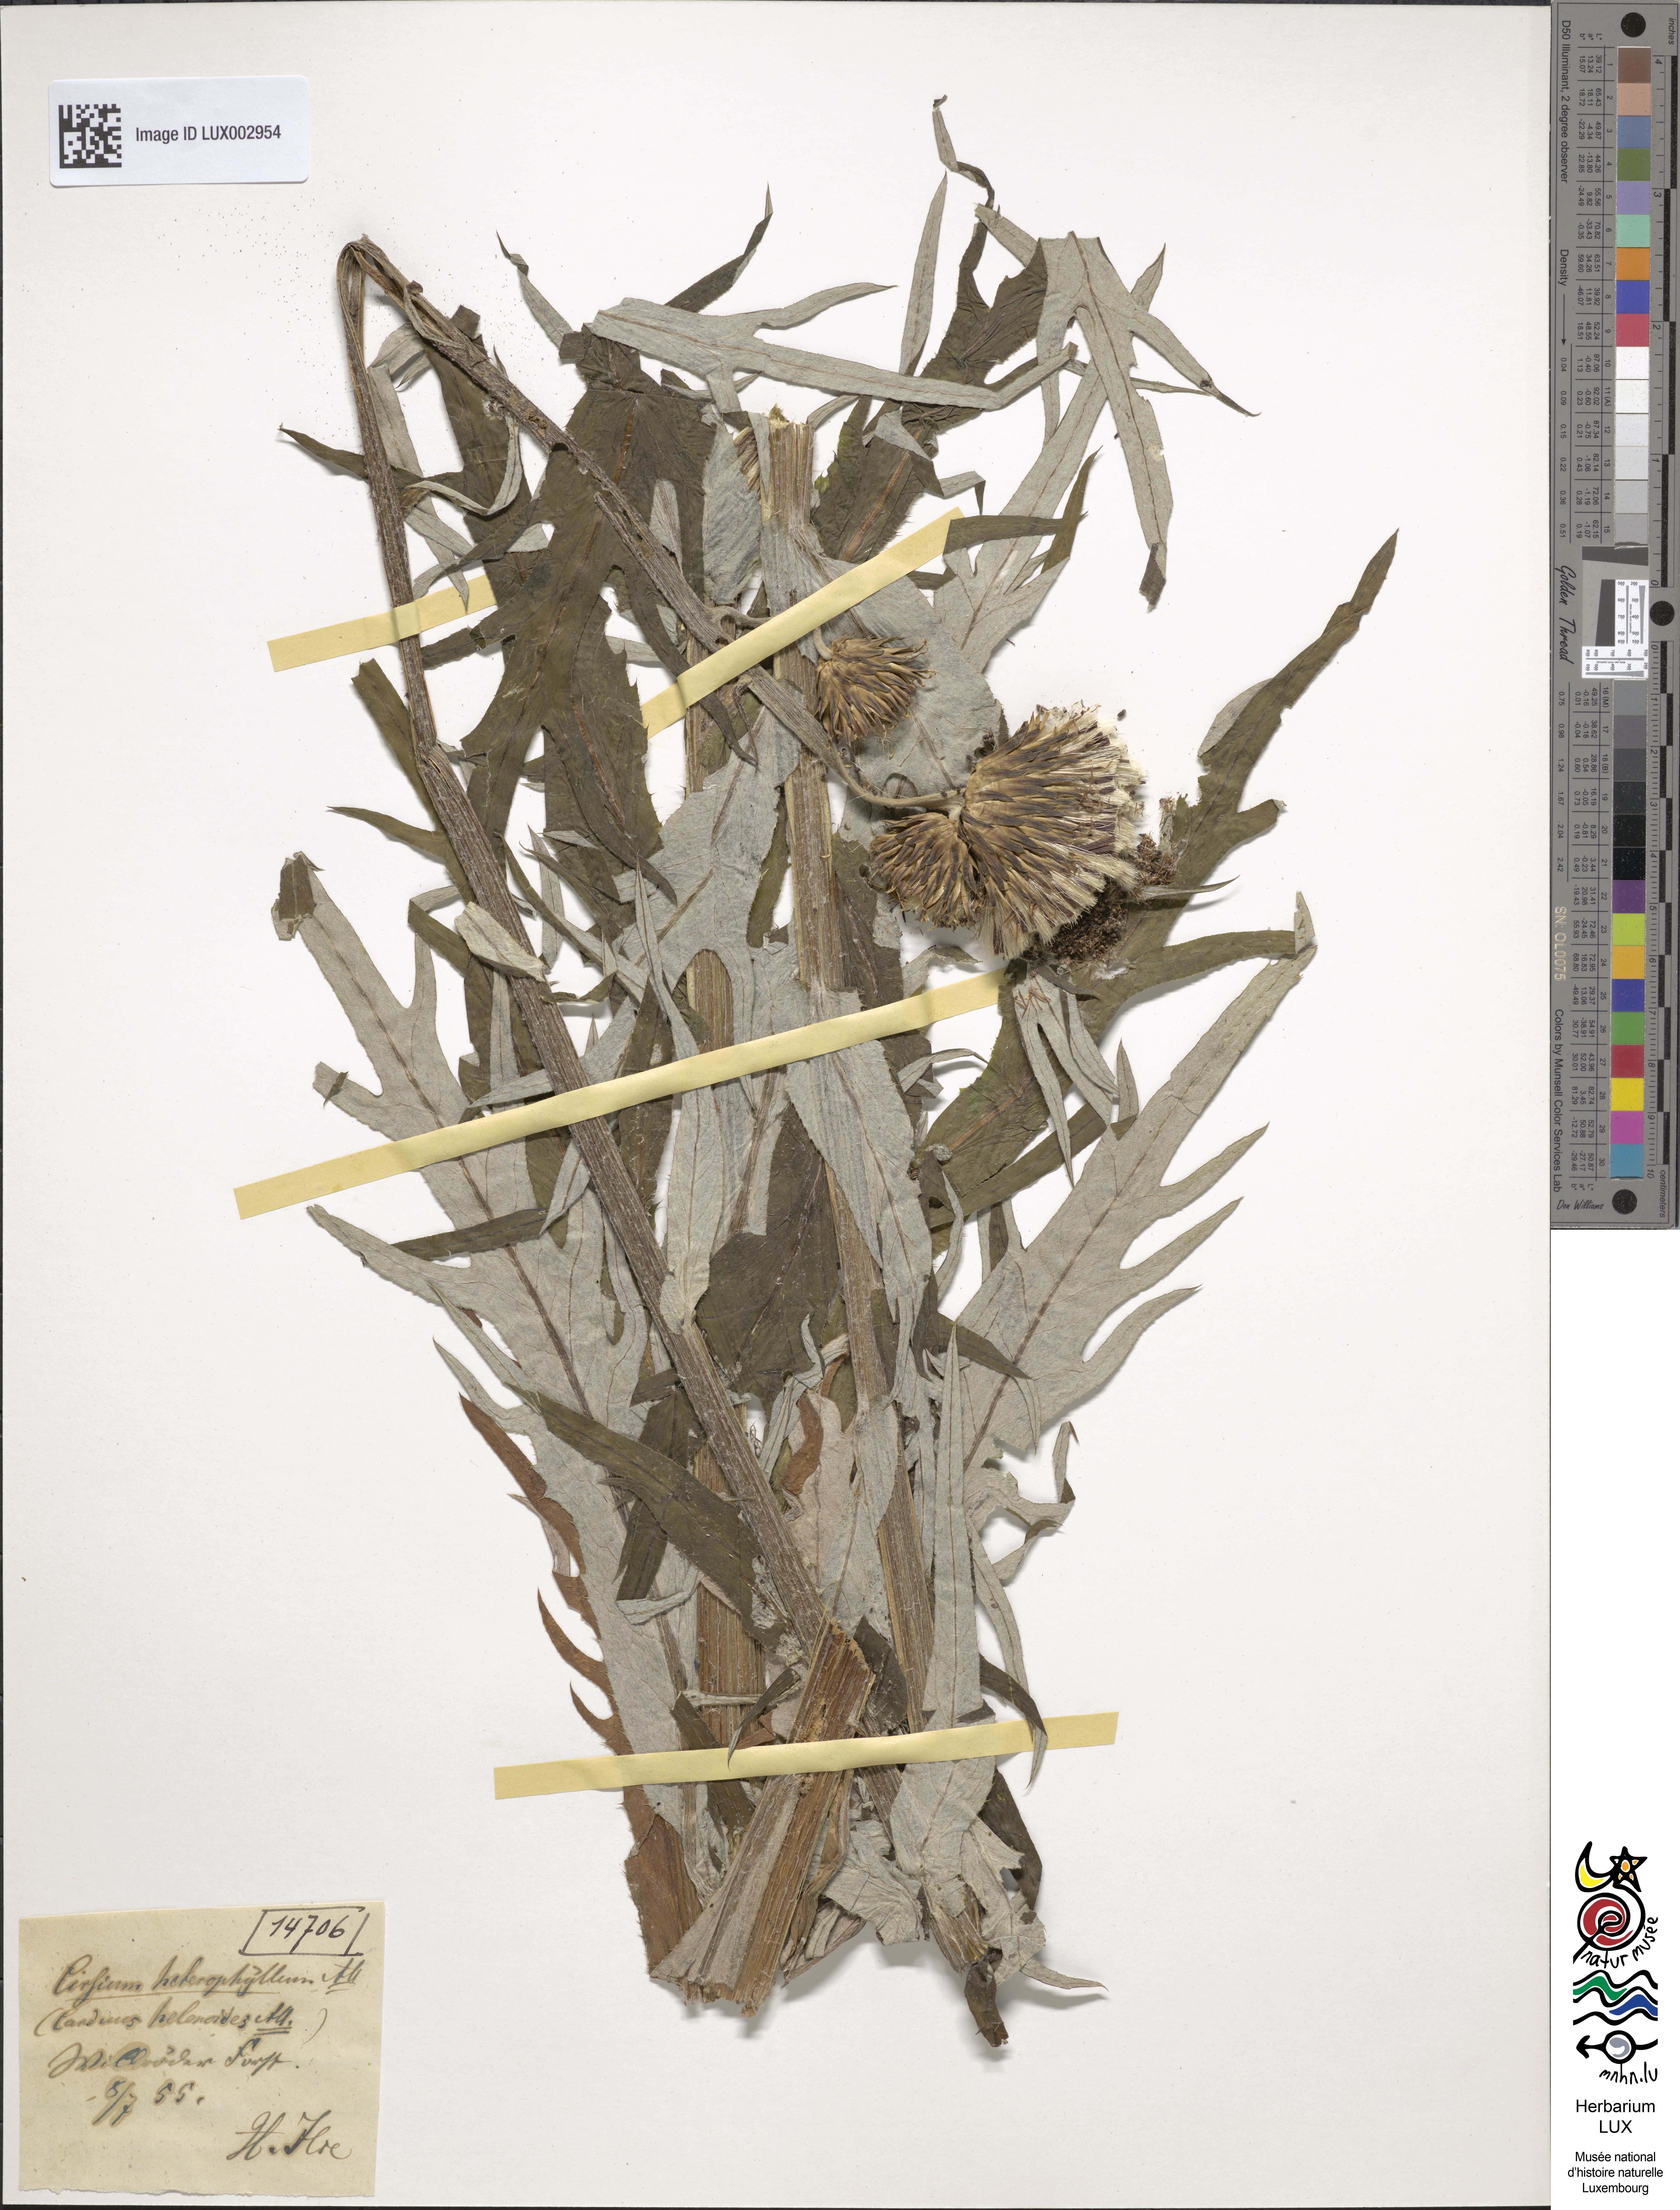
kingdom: Plantae
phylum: Tracheophyta
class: Magnoliopsida
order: Asterales
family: Asteraceae
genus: Cirsium
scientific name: Cirsium heterophyllum
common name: Melancholy thistle
